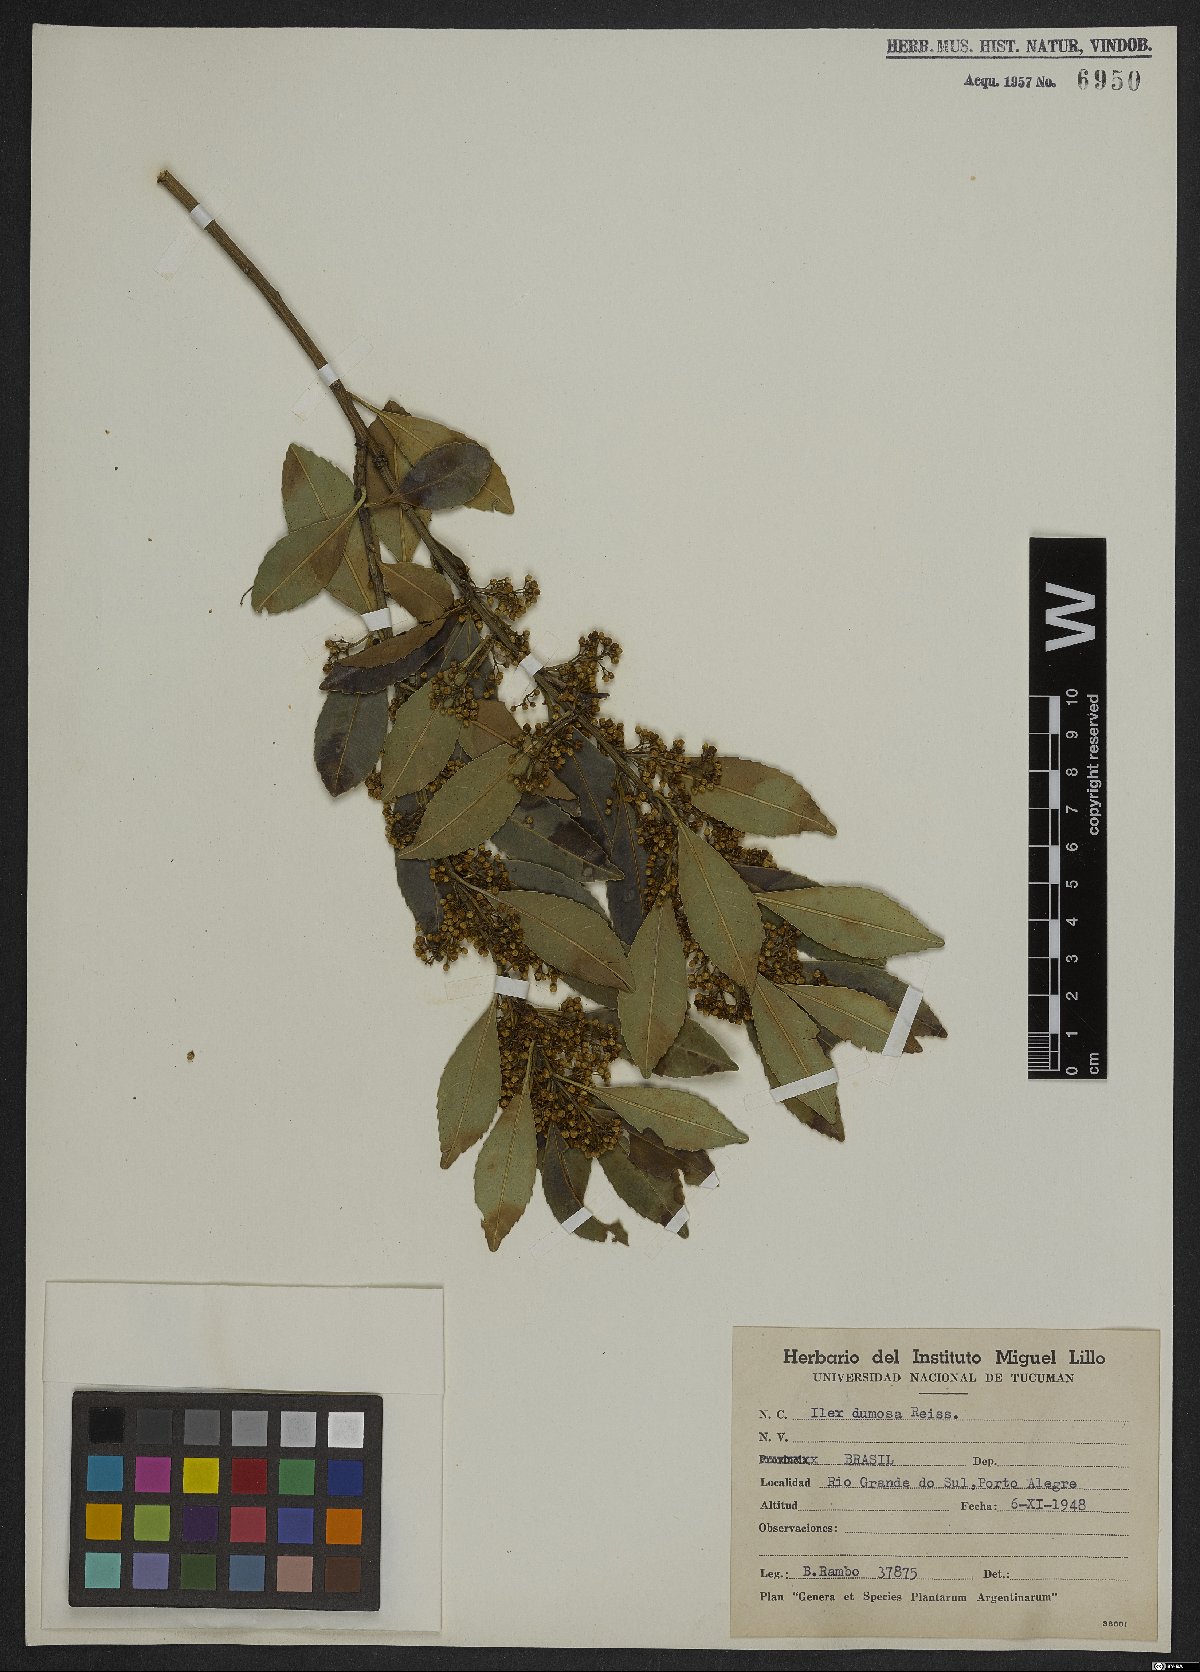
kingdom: Plantae
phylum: Tracheophyta
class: Magnoliopsida
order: Aquifoliales
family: Aquifoliaceae
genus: Ilex
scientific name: Ilex dumosa
